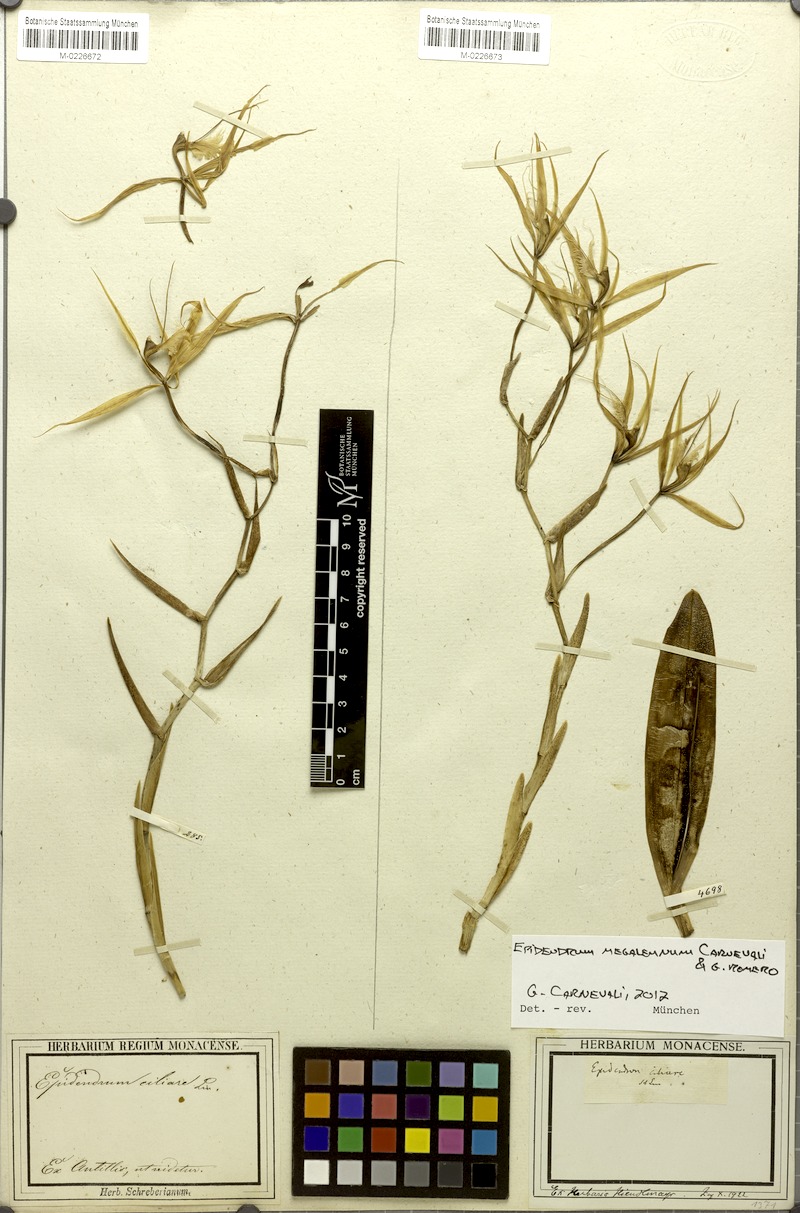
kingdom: Plantae
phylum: Tracheophyta
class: Liliopsida
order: Asparagales
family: Orchidaceae
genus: Epidendrum
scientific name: Epidendrum megalemmum
